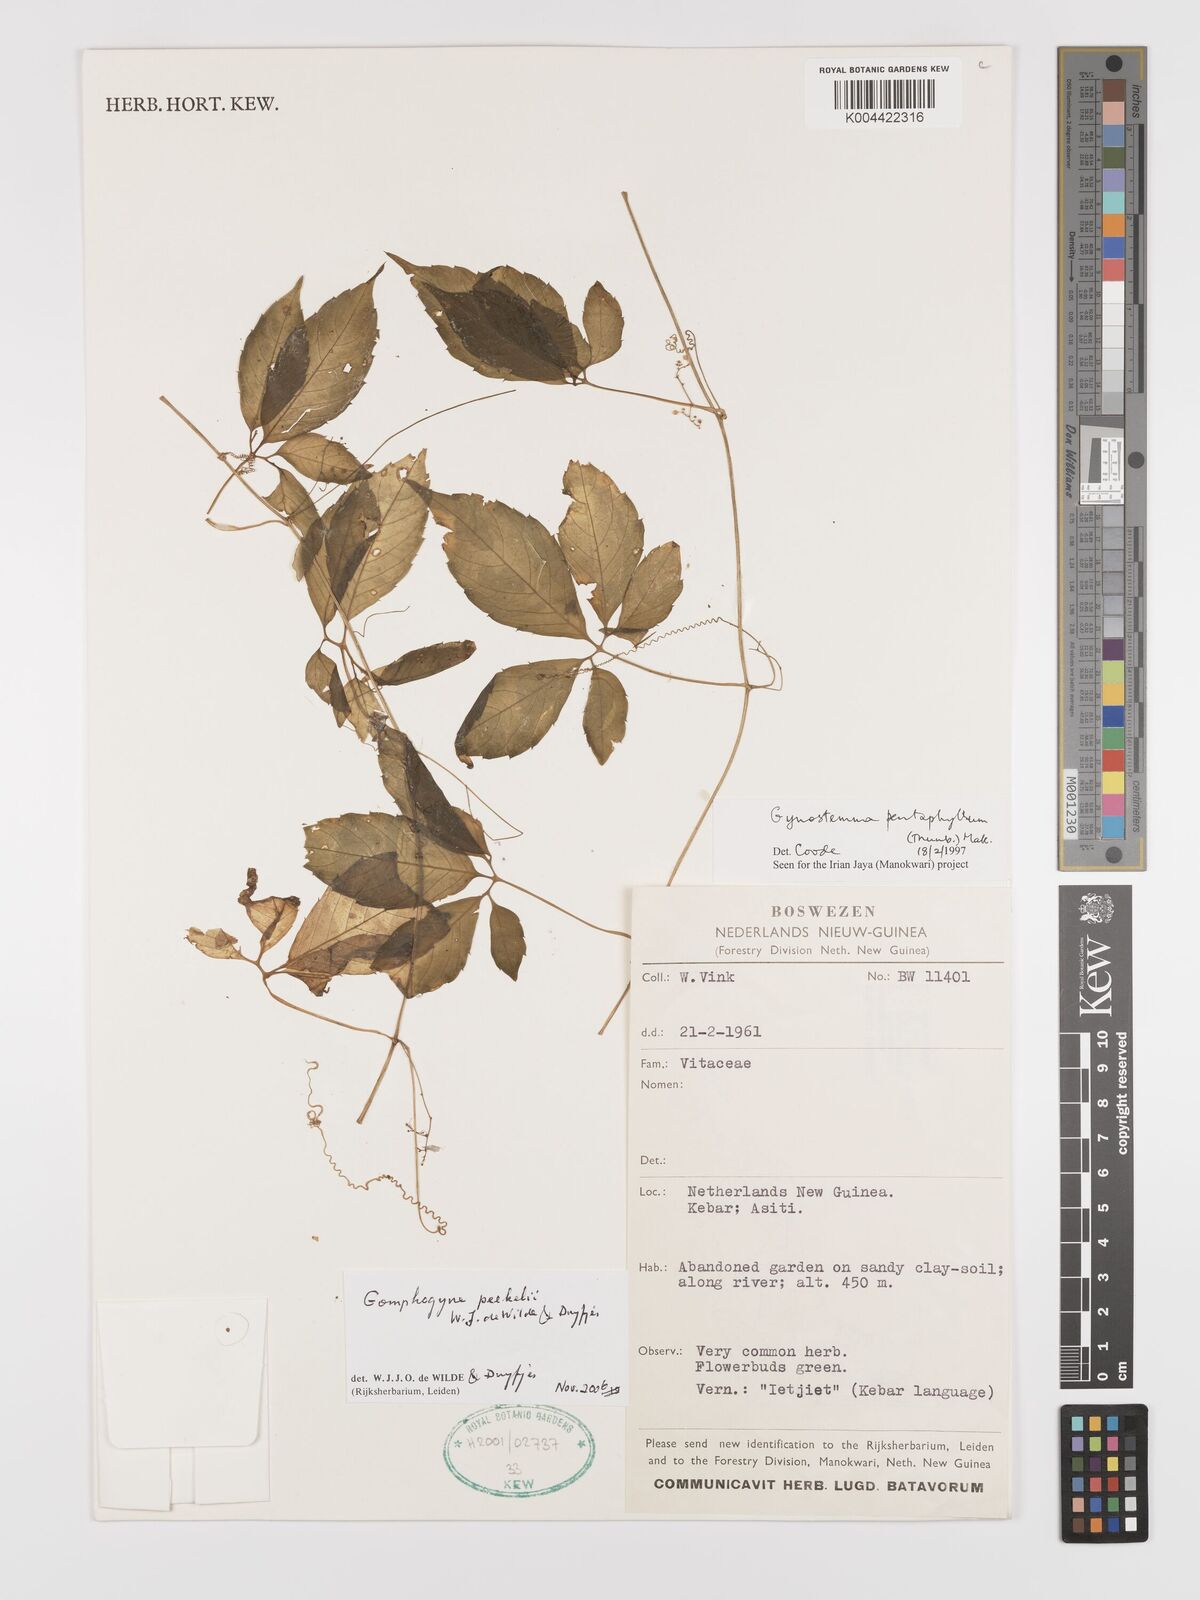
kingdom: Plantae
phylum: Tracheophyta
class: Magnoliopsida
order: Cucurbitales
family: Cucurbitaceae
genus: Hemsleya
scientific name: Hemsleya peekelii
